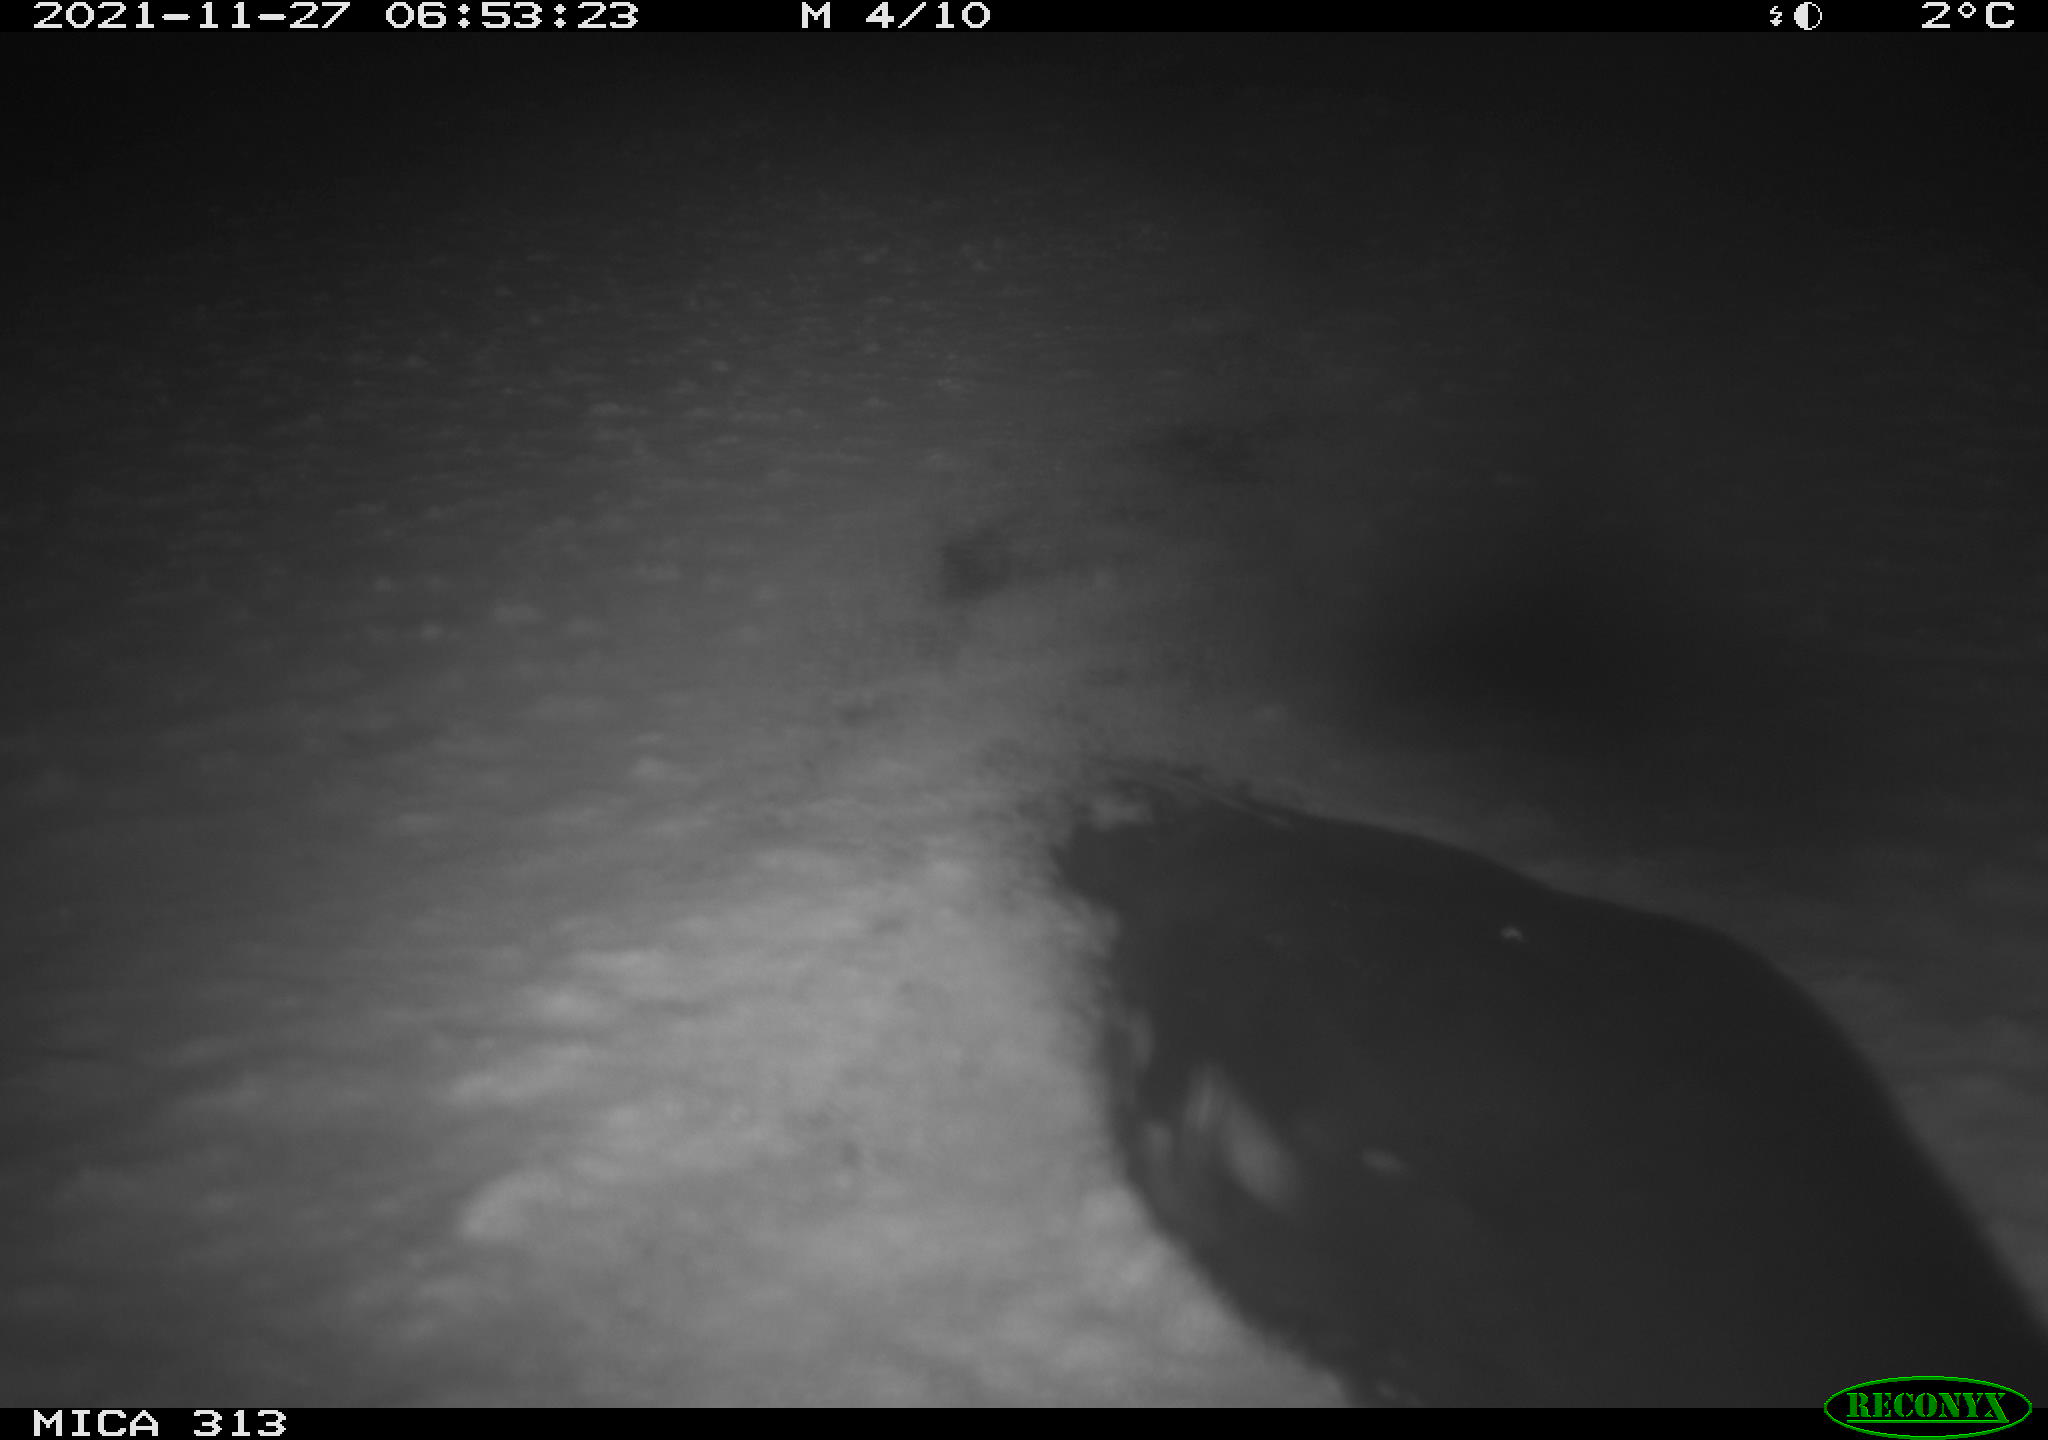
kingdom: Animalia
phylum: Chordata
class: Aves
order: Gruiformes
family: Rallidae
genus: Gallinula
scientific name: Gallinula chloropus
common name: Common moorhen
